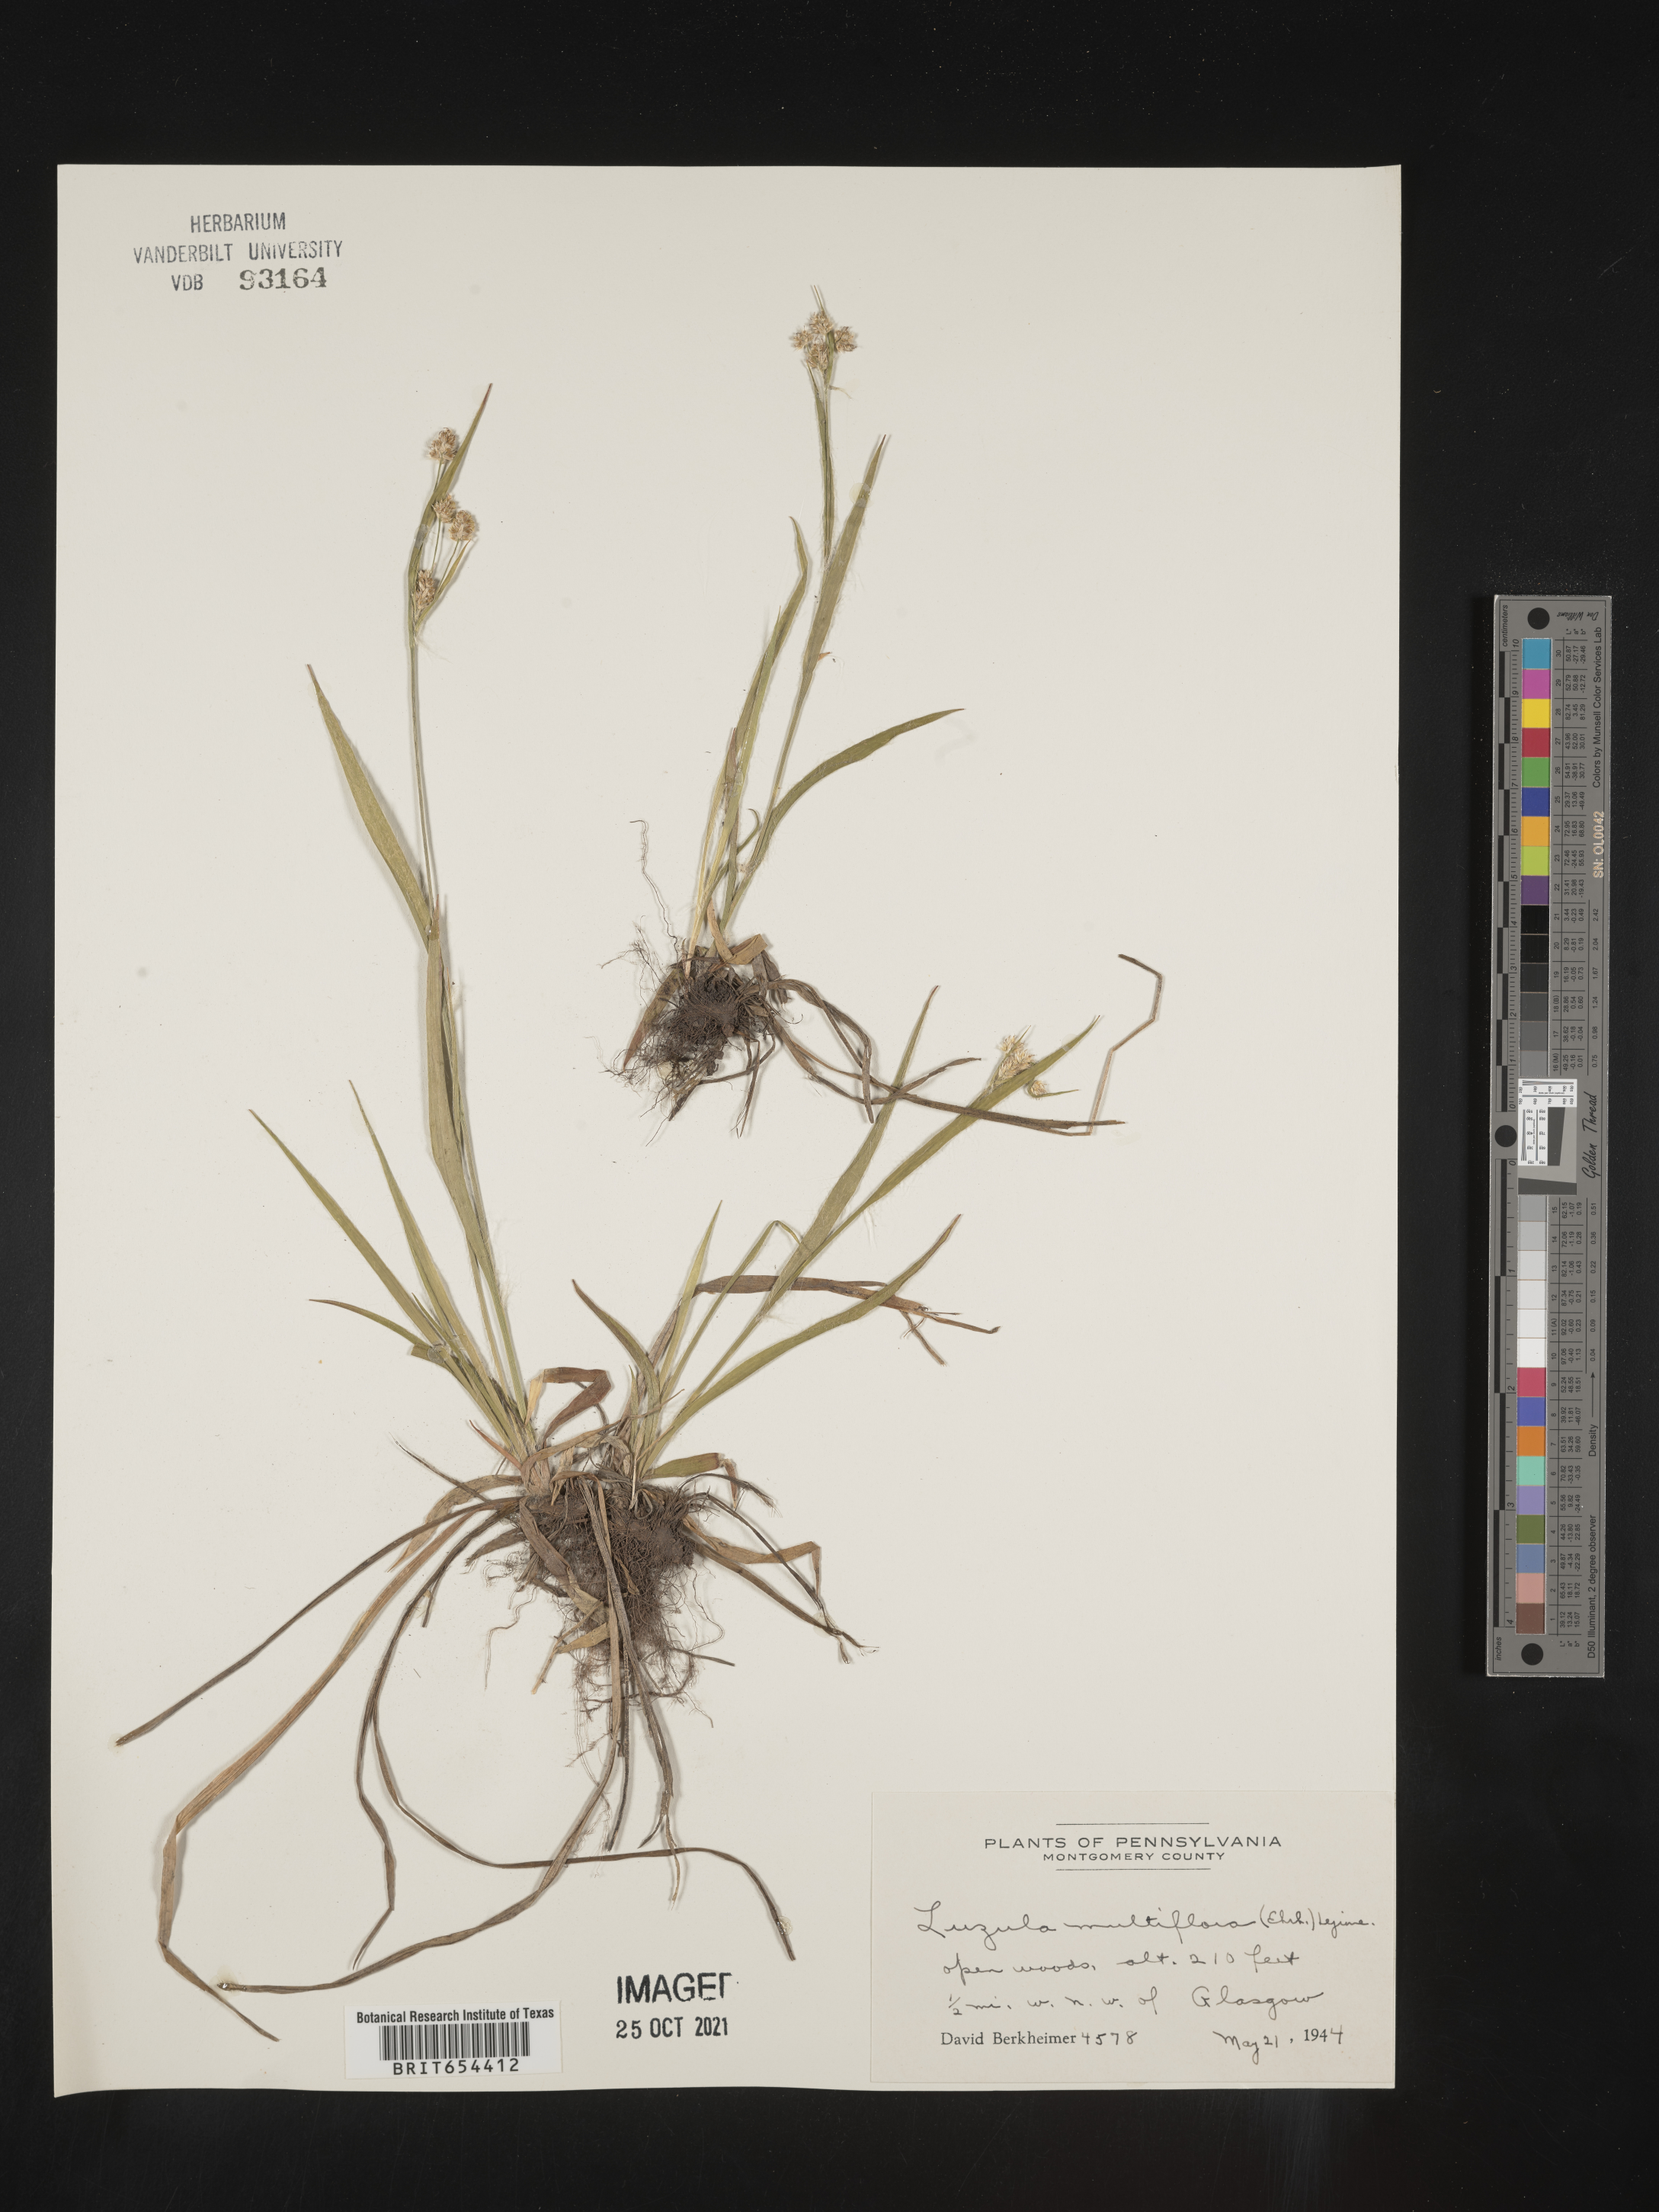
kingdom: Plantae
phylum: Tracheophyta
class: Liliopsida
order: Poales
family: Juncaceae
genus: Luzula
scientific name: Luzula multiflora
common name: Heath wood-rush
